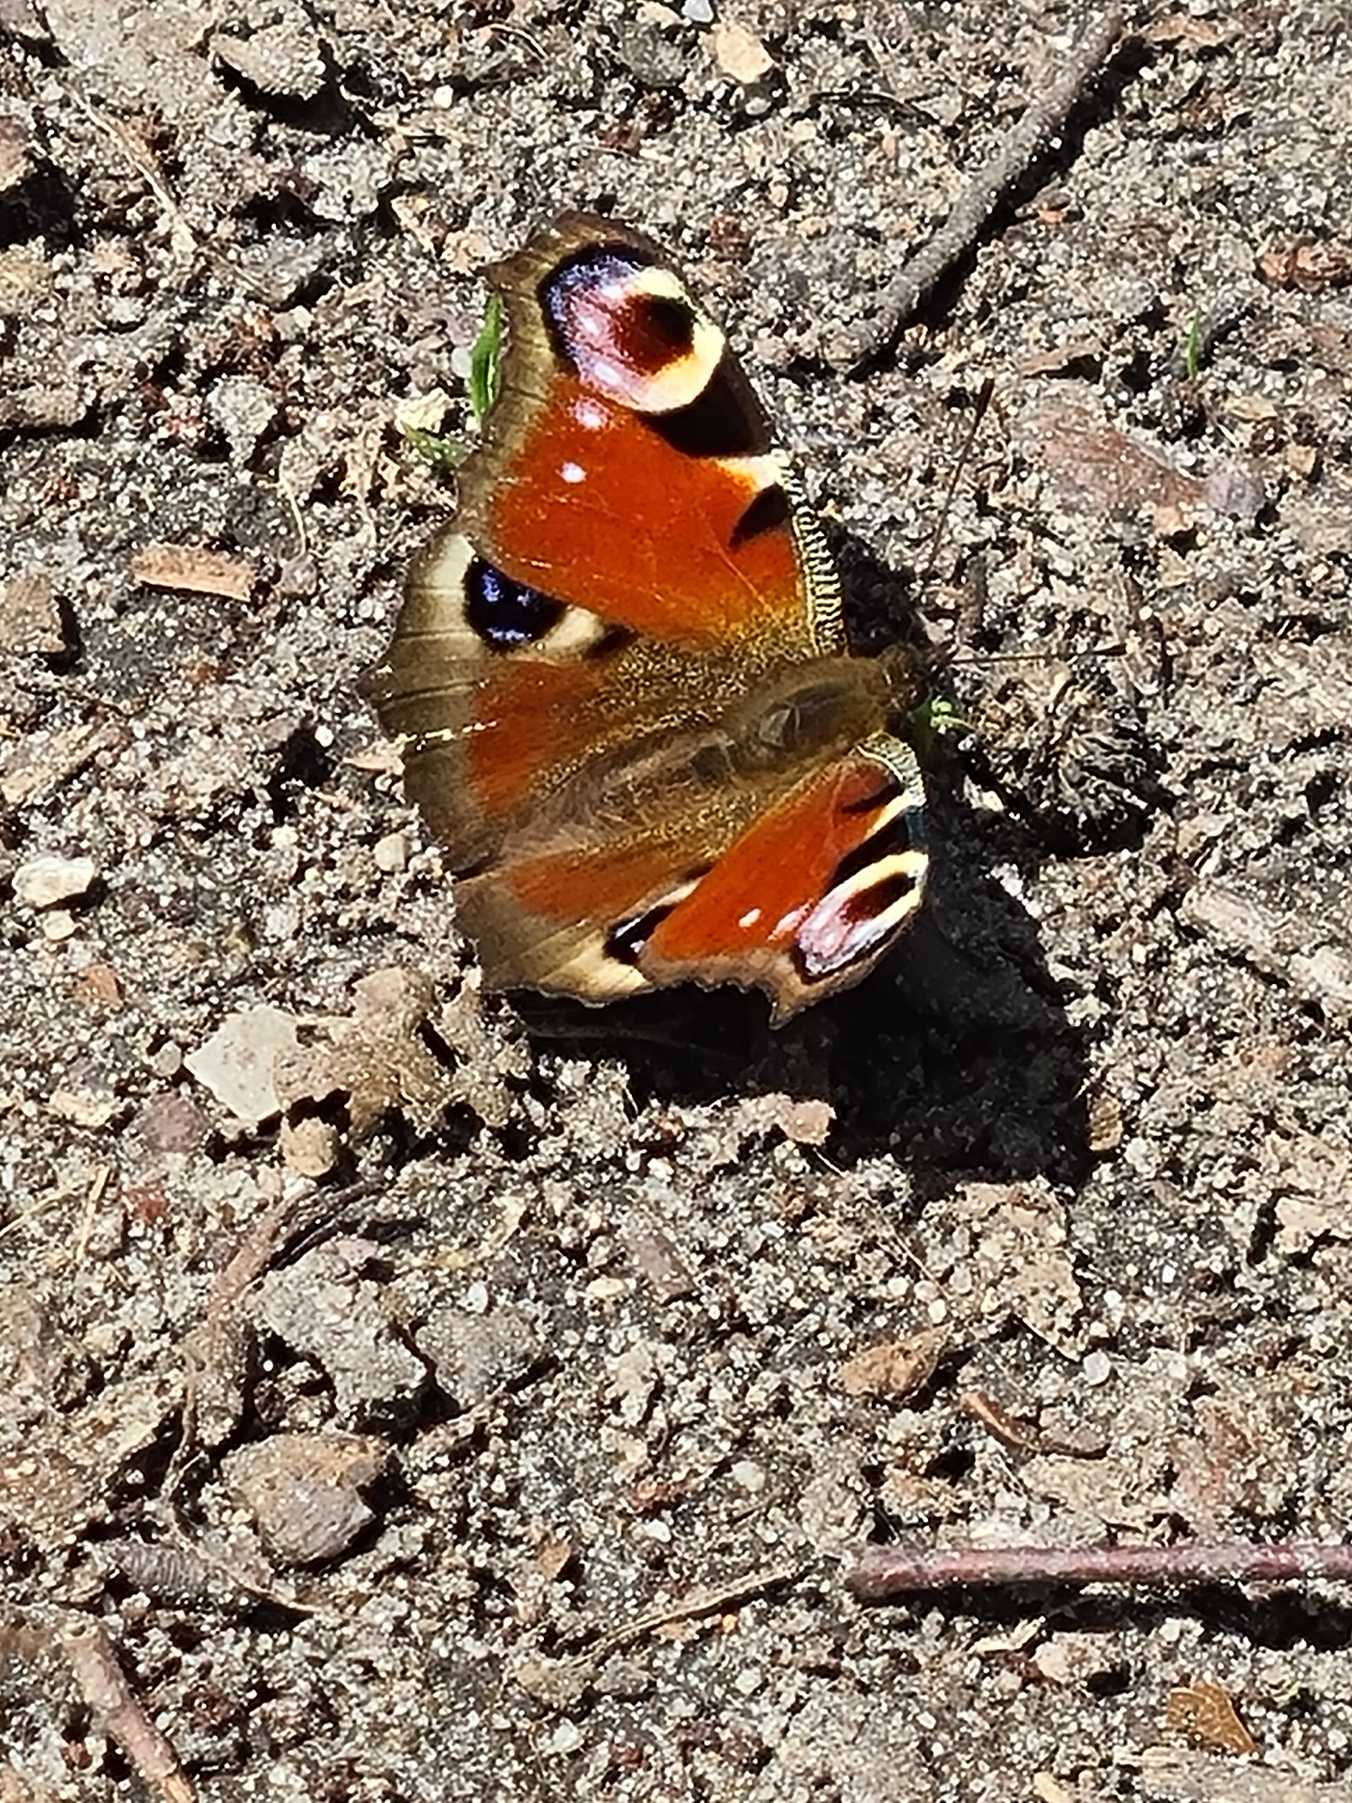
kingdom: Animalia
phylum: Arthropoda
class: Insecta
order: Lepidoptera
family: Nymphalidae
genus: Aglais
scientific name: Aglais io
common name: Dagpåfugleøje
